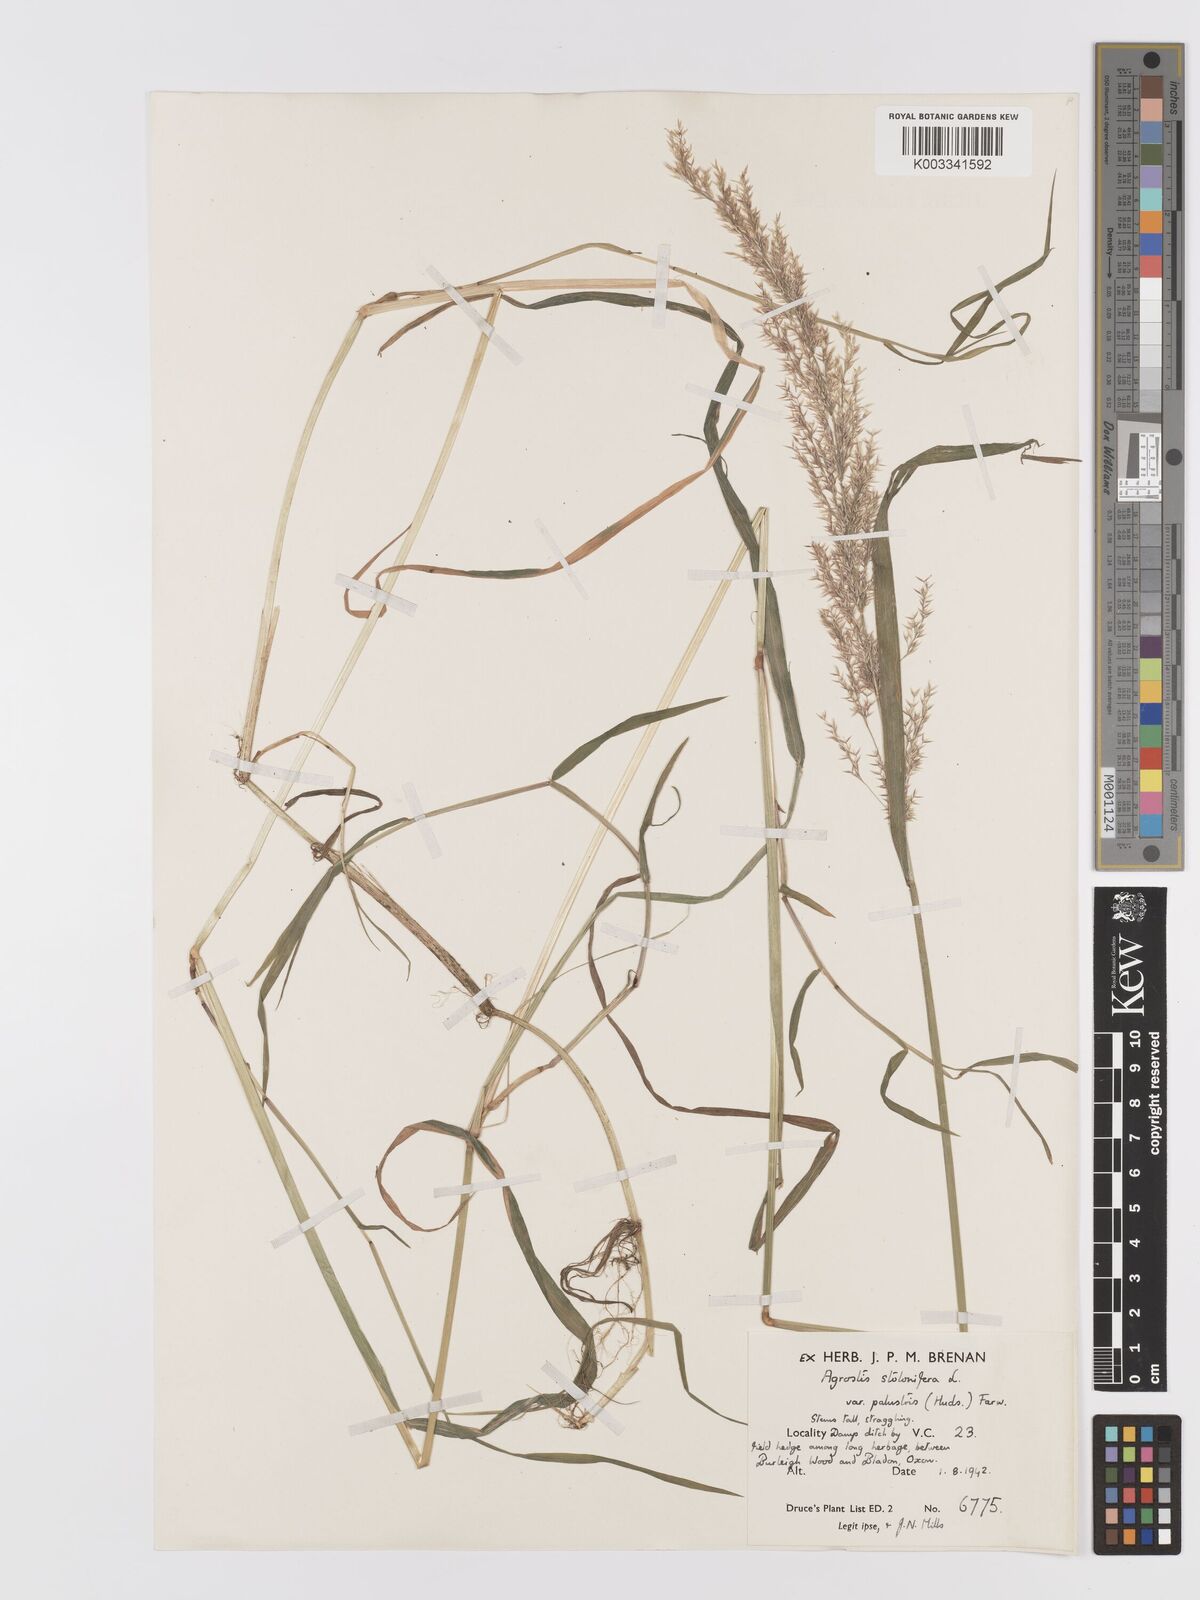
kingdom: Plantae
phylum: Tracheophyta
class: Liliopsida
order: Poales
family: Poaceae
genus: Agrostis
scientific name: Agrostis stolonifera
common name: Creeping bentgrass
